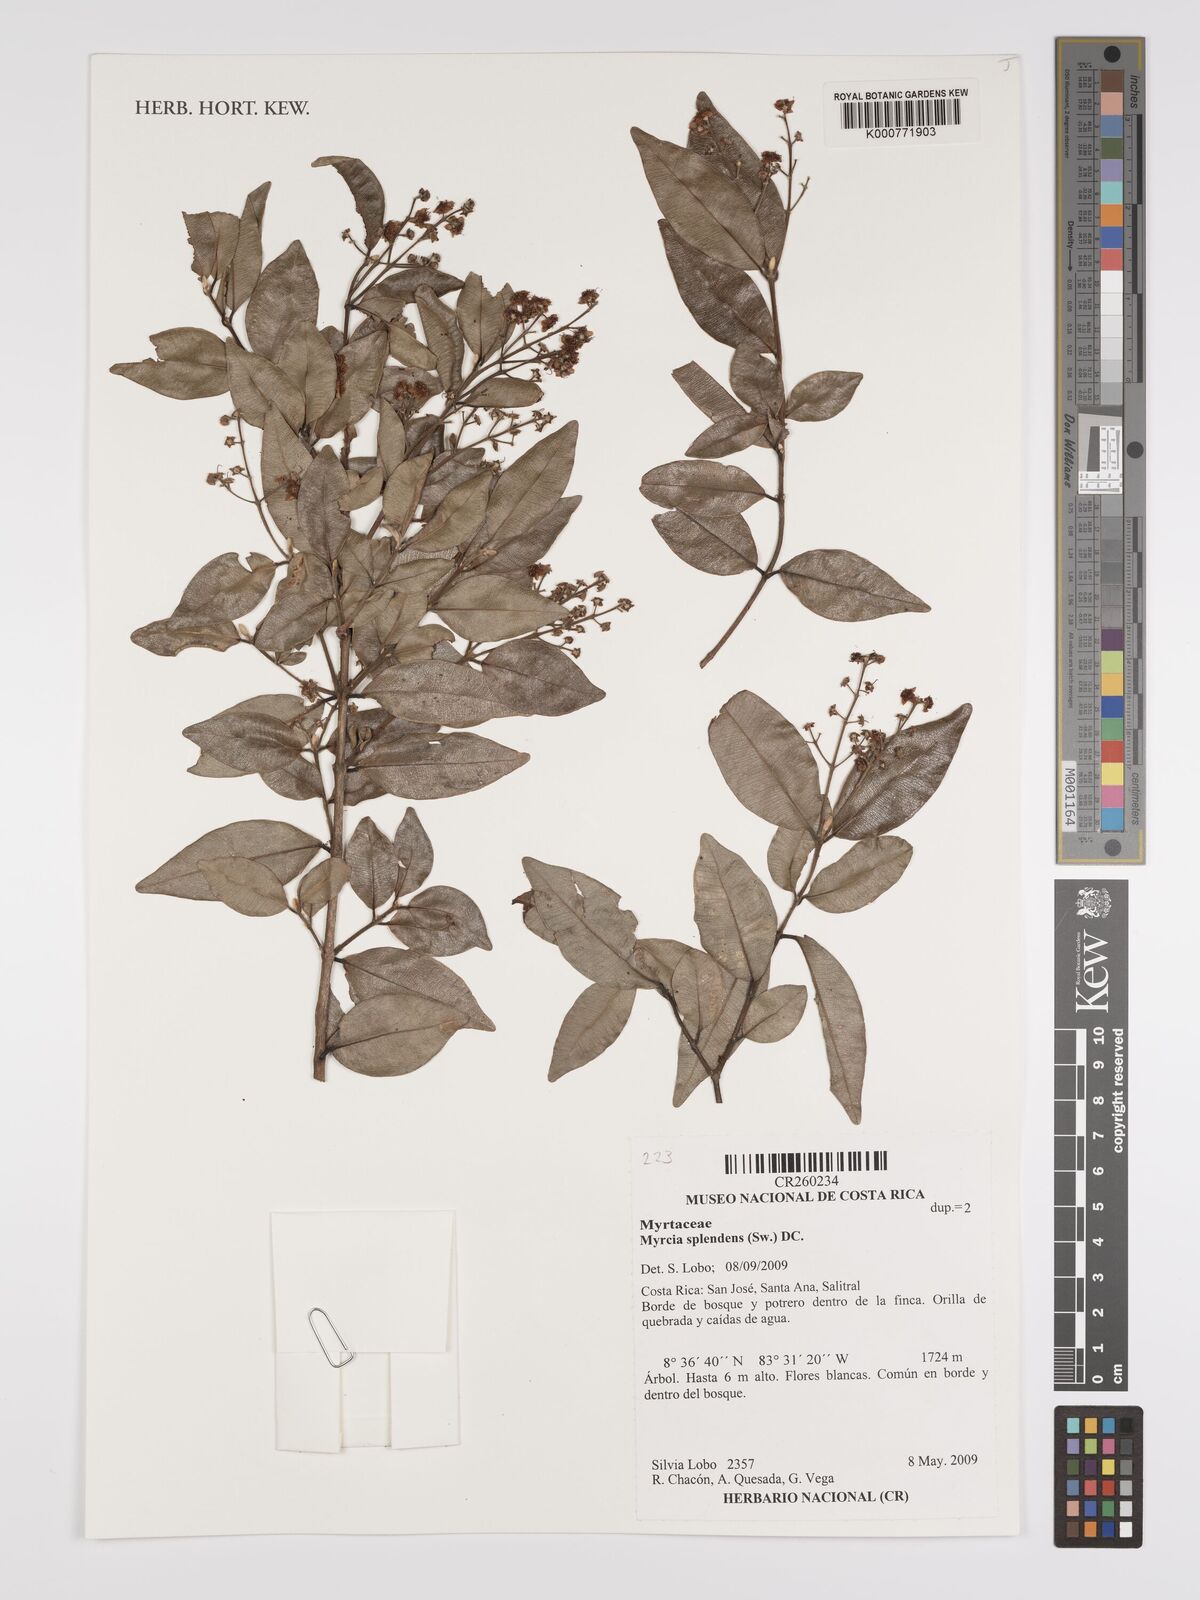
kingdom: Plantae
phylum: Tracheophyta
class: Magnoliopsida
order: Myrtales
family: Myrtaceae
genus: Myrcia
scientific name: Myrcia splendens
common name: Surinam cherry
